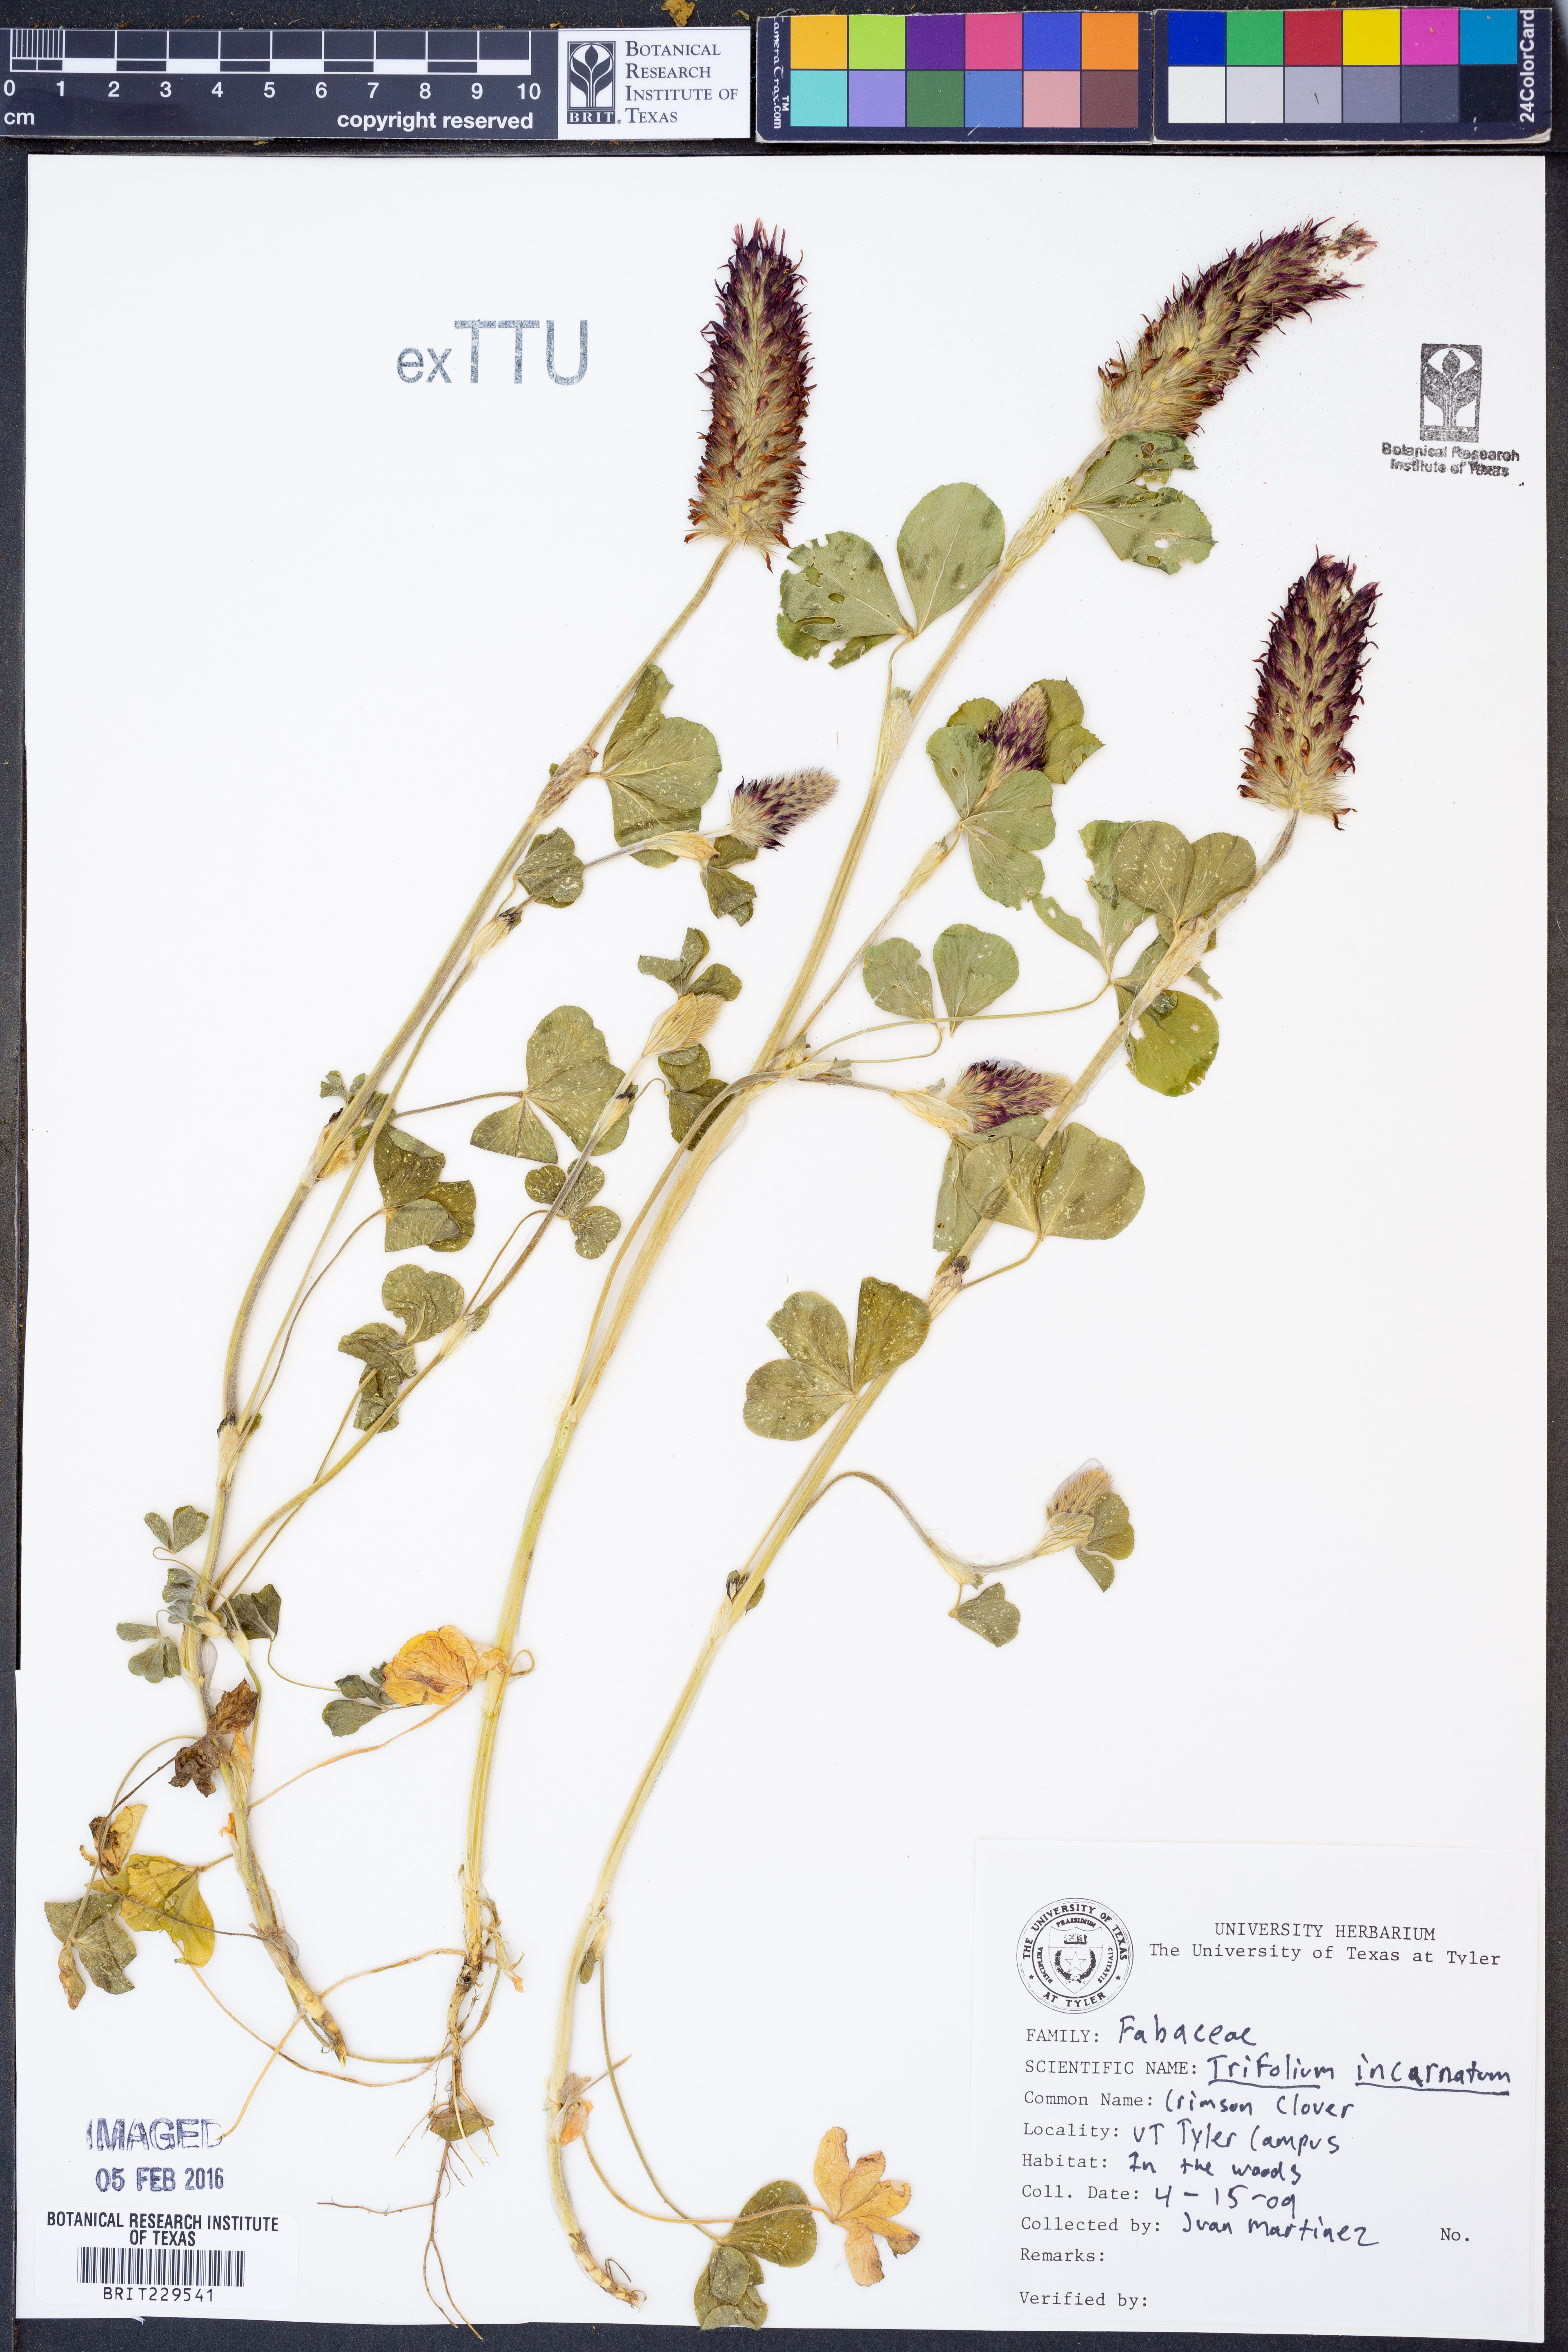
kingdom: Plantae
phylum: Tracheophyta
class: Magnoliopsida
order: Fabales
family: Fabaceae
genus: Trifolium
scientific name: Trifolium incarnatum
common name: Crimson clover
